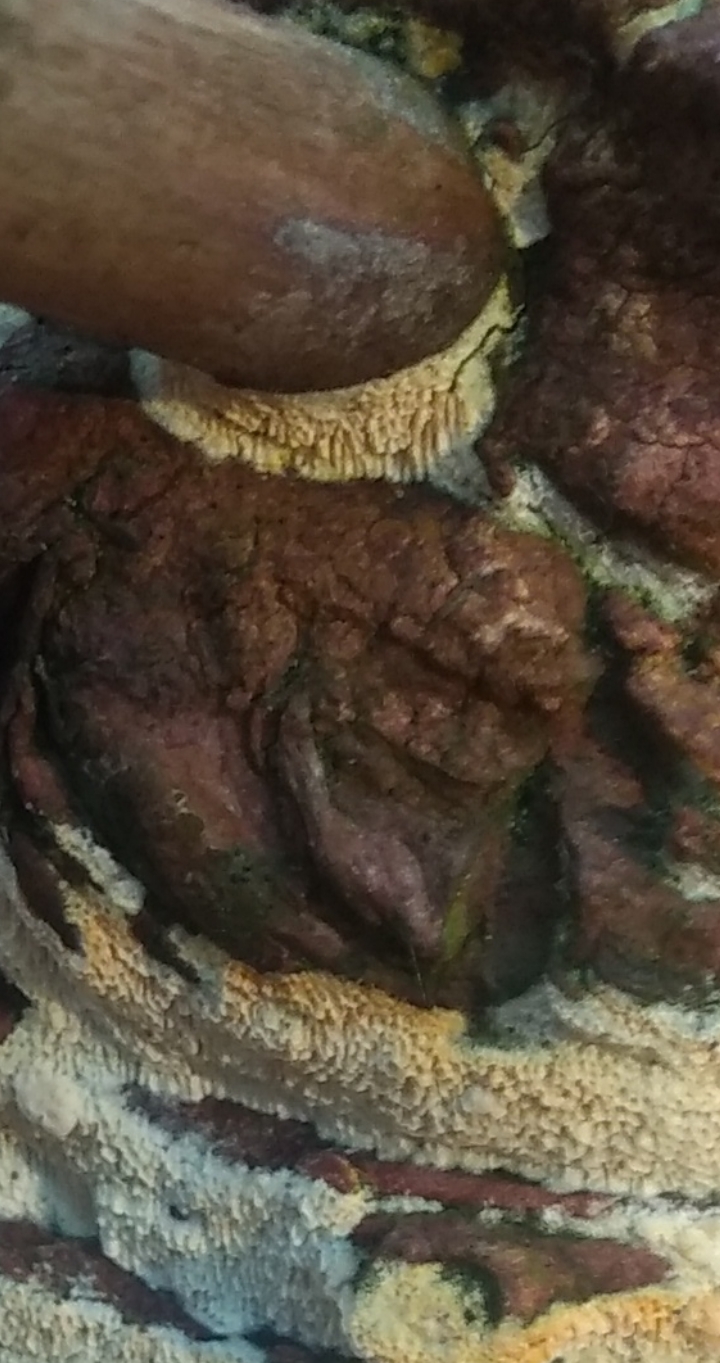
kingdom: Fungi
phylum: Basidiomycota
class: Agaricomycetes
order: Hymenochaetales
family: Schizoporaceae
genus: Xylodon
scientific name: Xylodon
